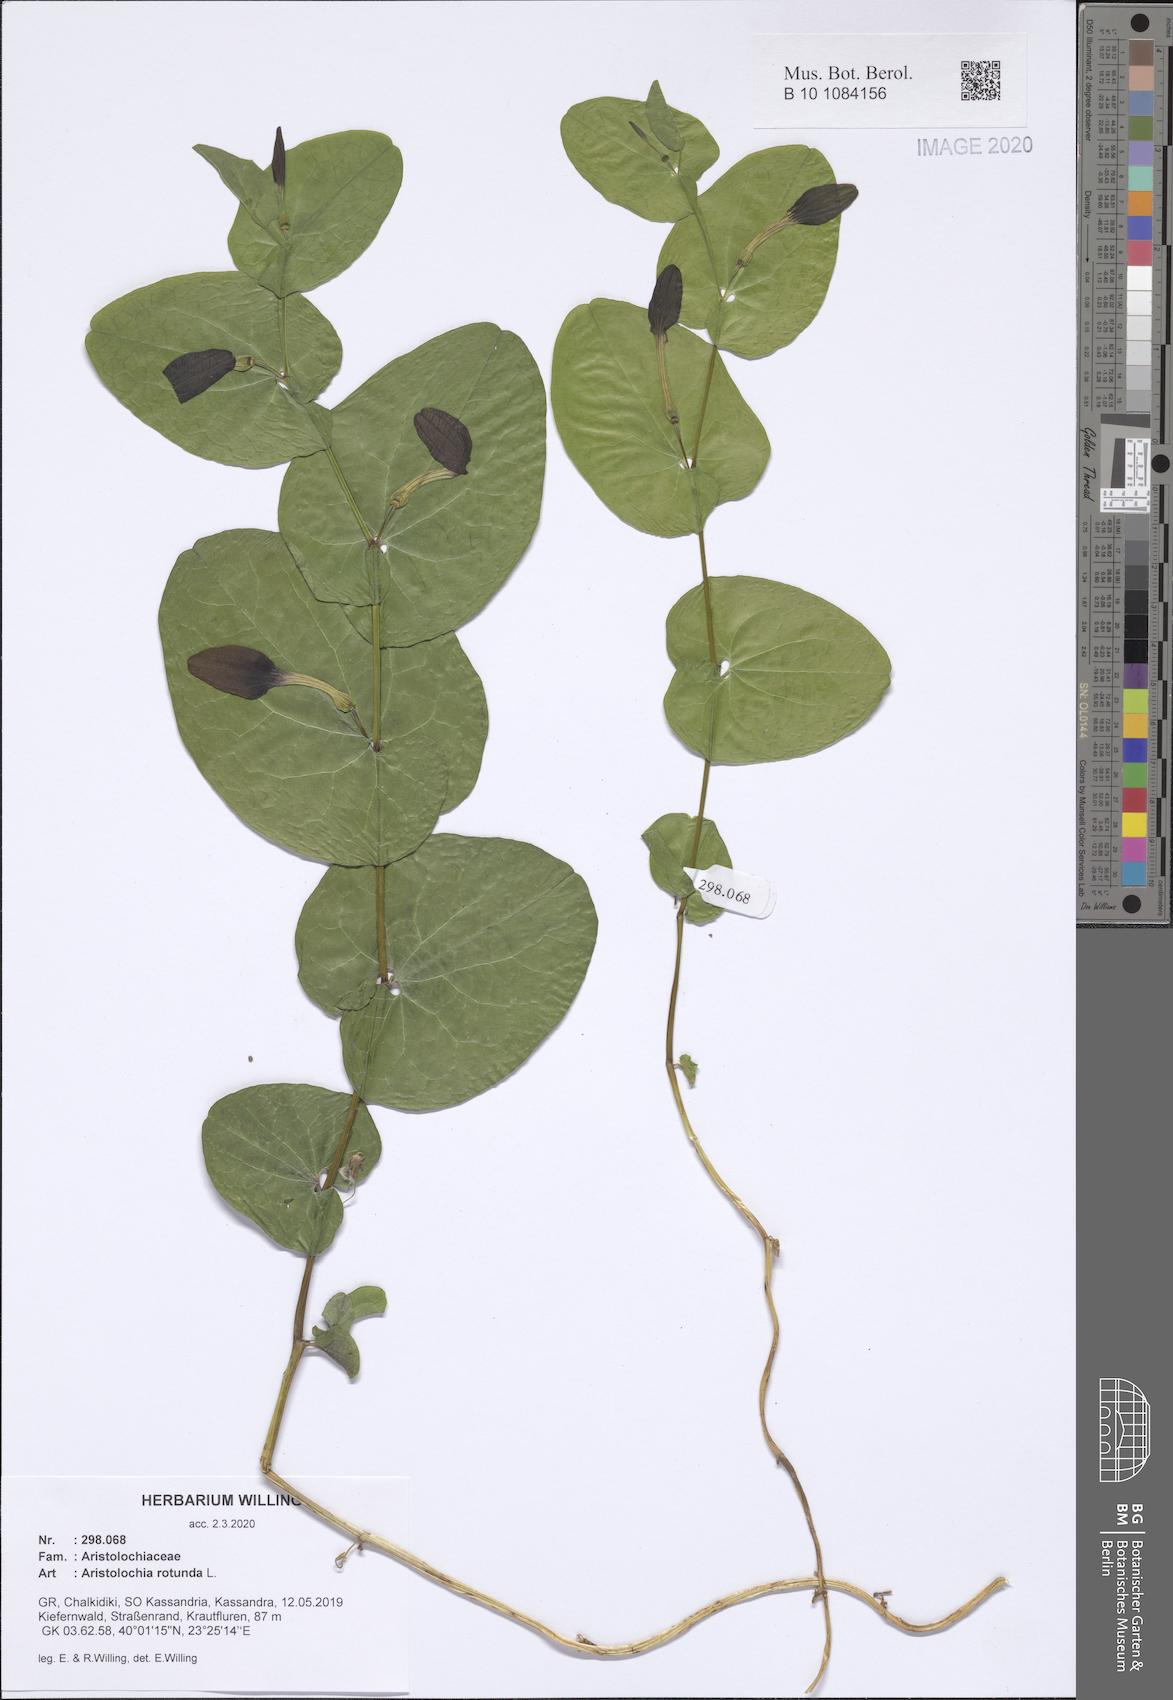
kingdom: Plantae
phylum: Tracheophyta
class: Magnoliopsida
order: Piperales
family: Aristolochiaceae
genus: Aristolochia
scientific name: Aristolochia rotunda
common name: Smearwort
